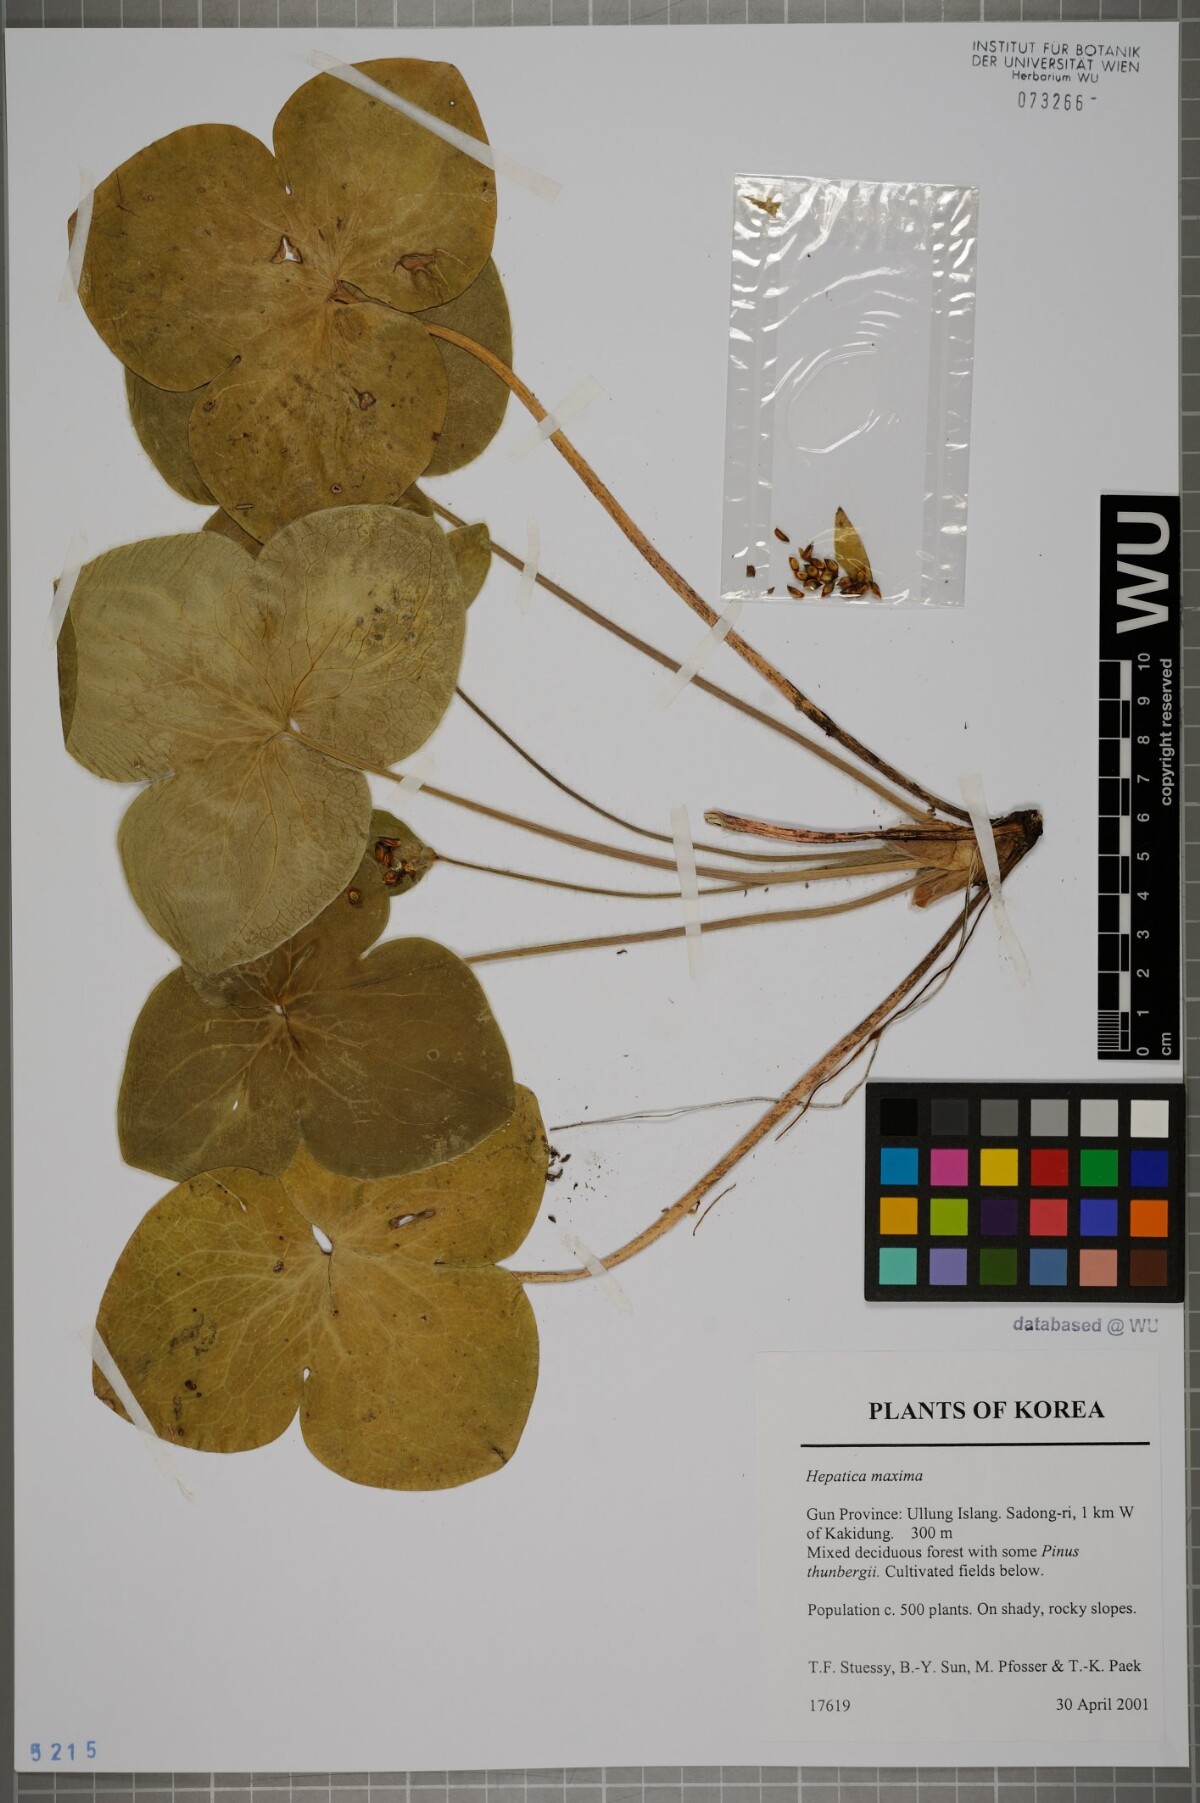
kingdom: Plantae
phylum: Tracheophyta
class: Magnoliopsida
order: Ranunculales
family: Ranunculaceae
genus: Hepatica
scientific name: Hepatica maxima
